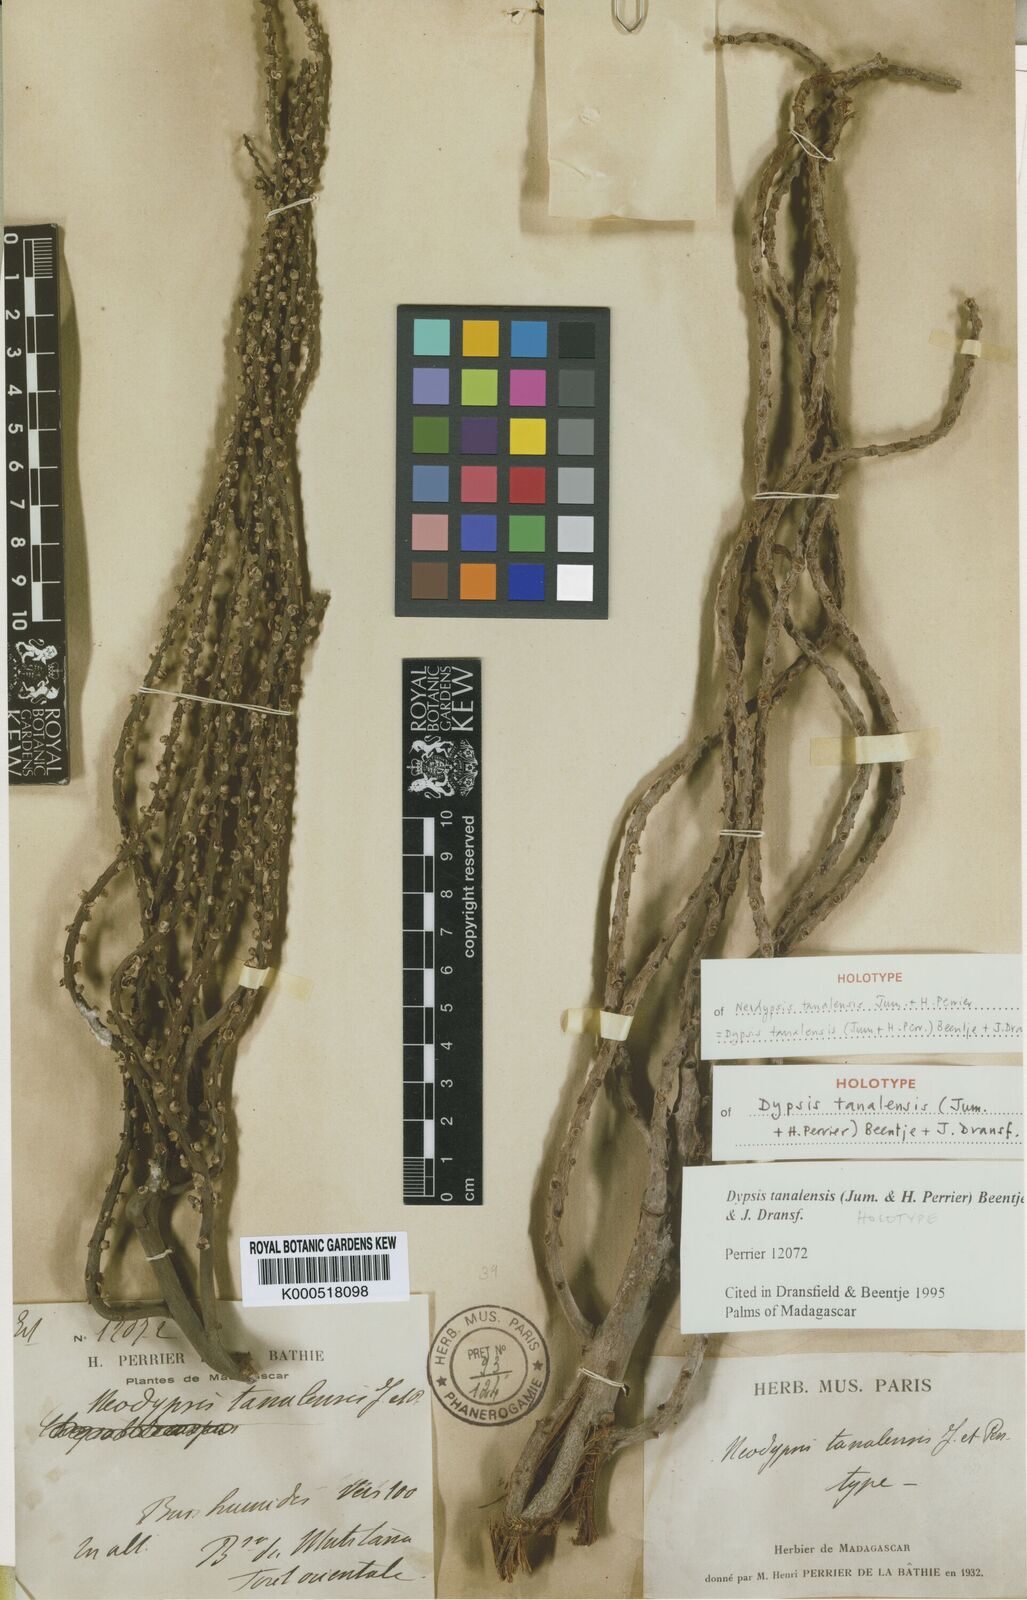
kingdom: Plantae
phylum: Tracheophyta
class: Liliopsida
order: Arecales
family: Arecaceae
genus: Dypsis
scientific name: Dypsis tanalensis
